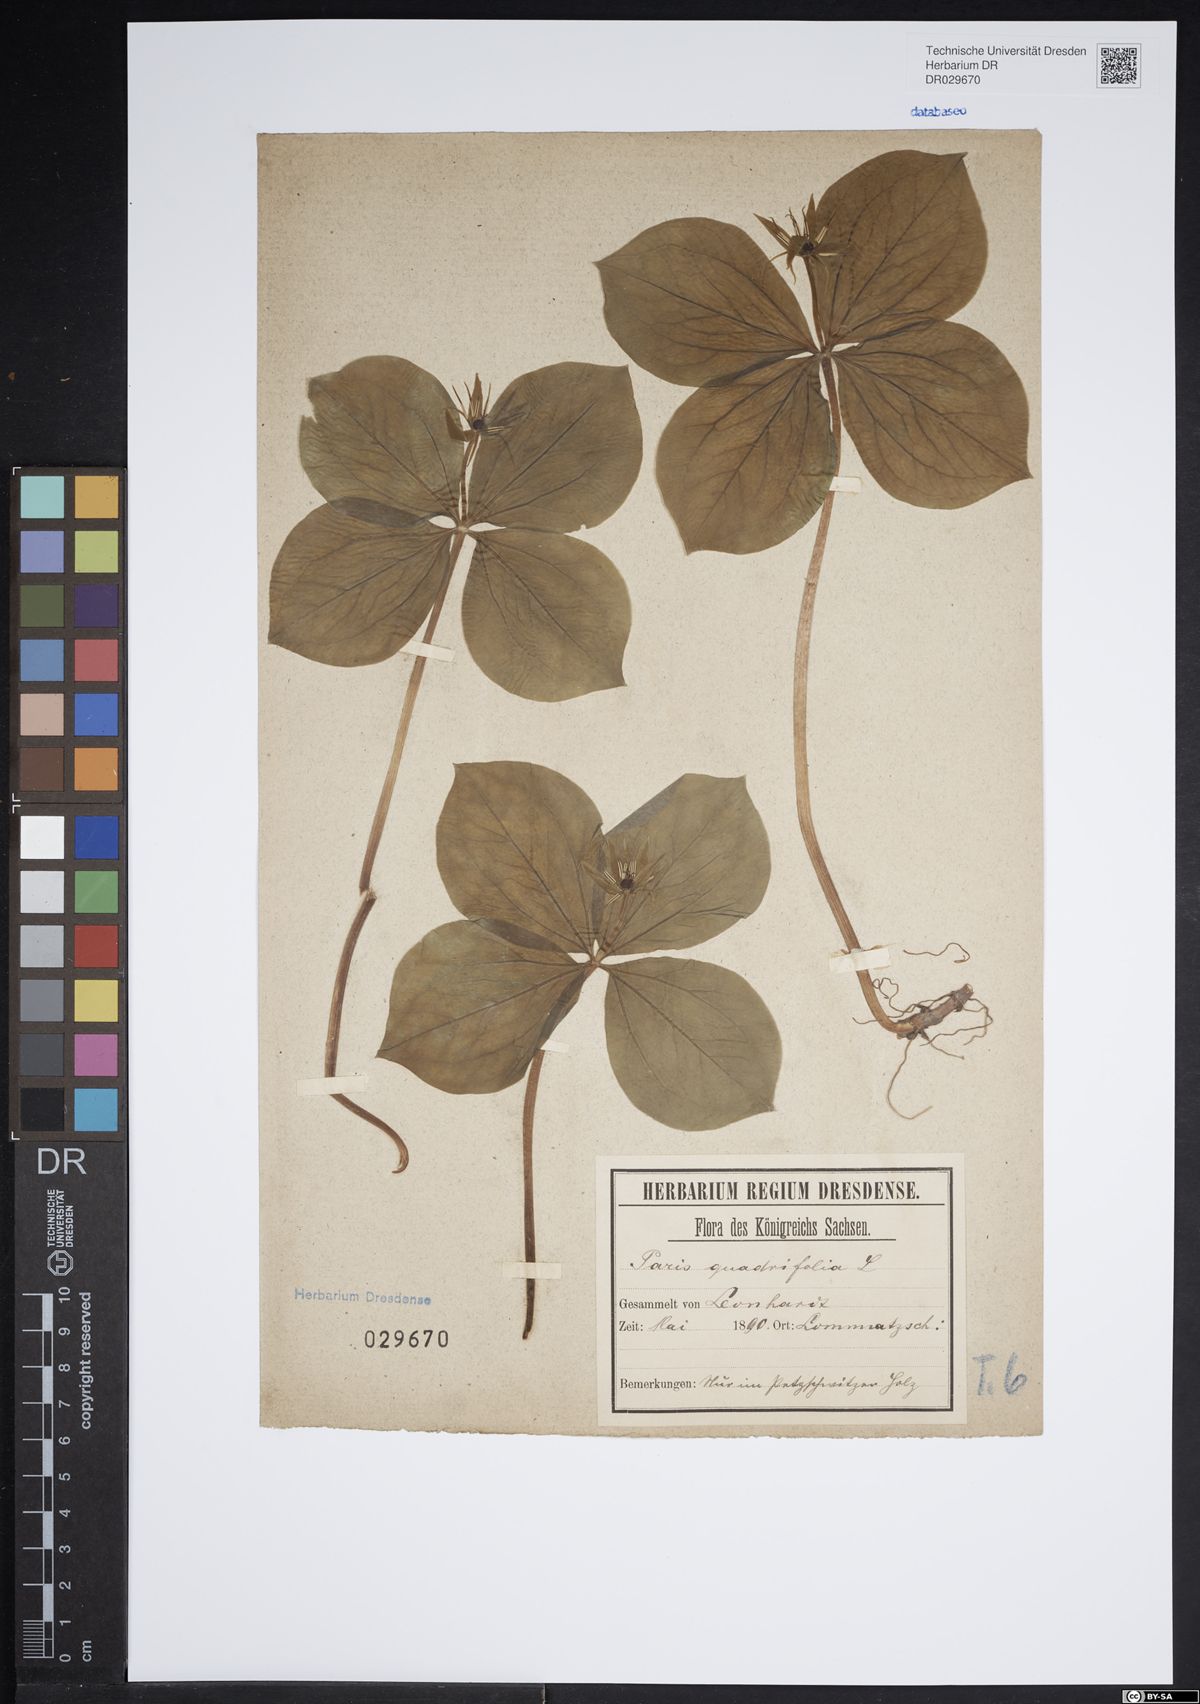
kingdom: Plantae
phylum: Tracheophyta
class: Liliopsida
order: Liliales
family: Melanthiaceae
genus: Paris
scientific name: Paris quadrifolia
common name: Herb-paris
